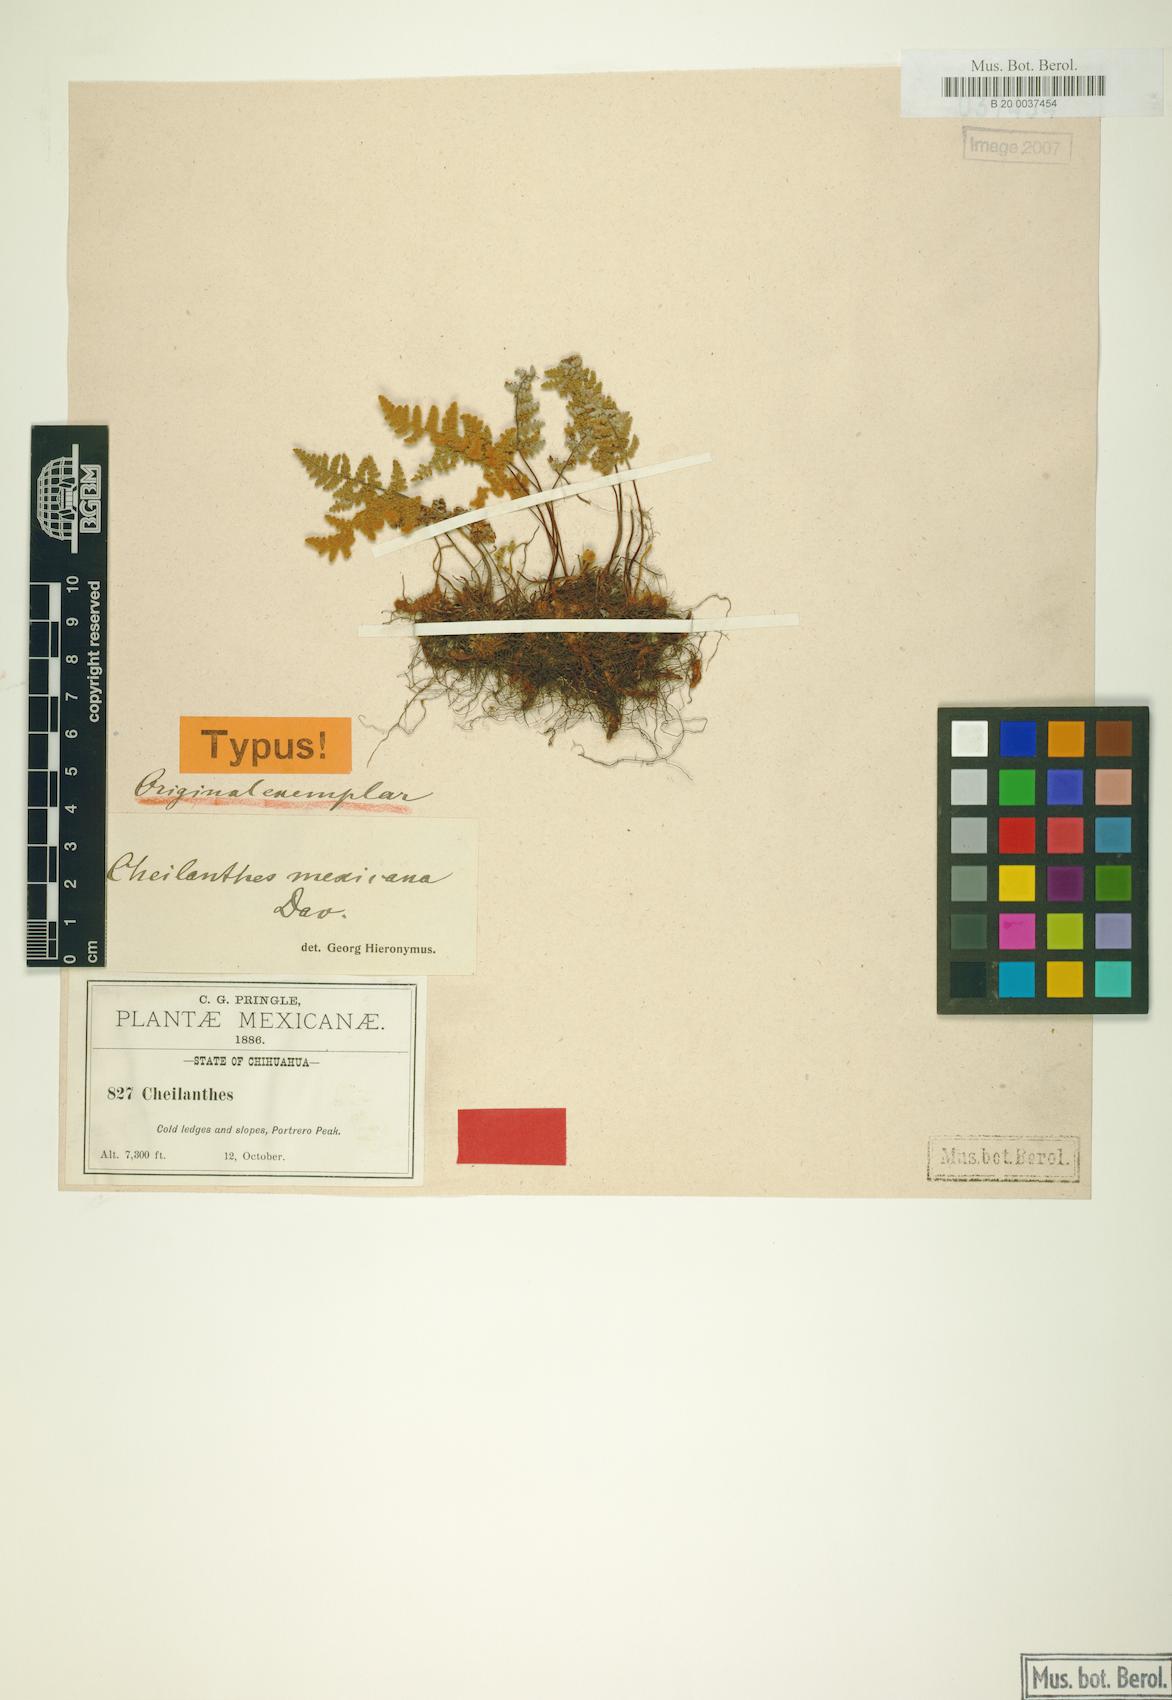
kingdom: Plantae
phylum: Tracheophyta
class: Polypodiopsida
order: Polypodiales
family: Pteridaceae
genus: Myriopteris
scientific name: Myriopteris mexicana
